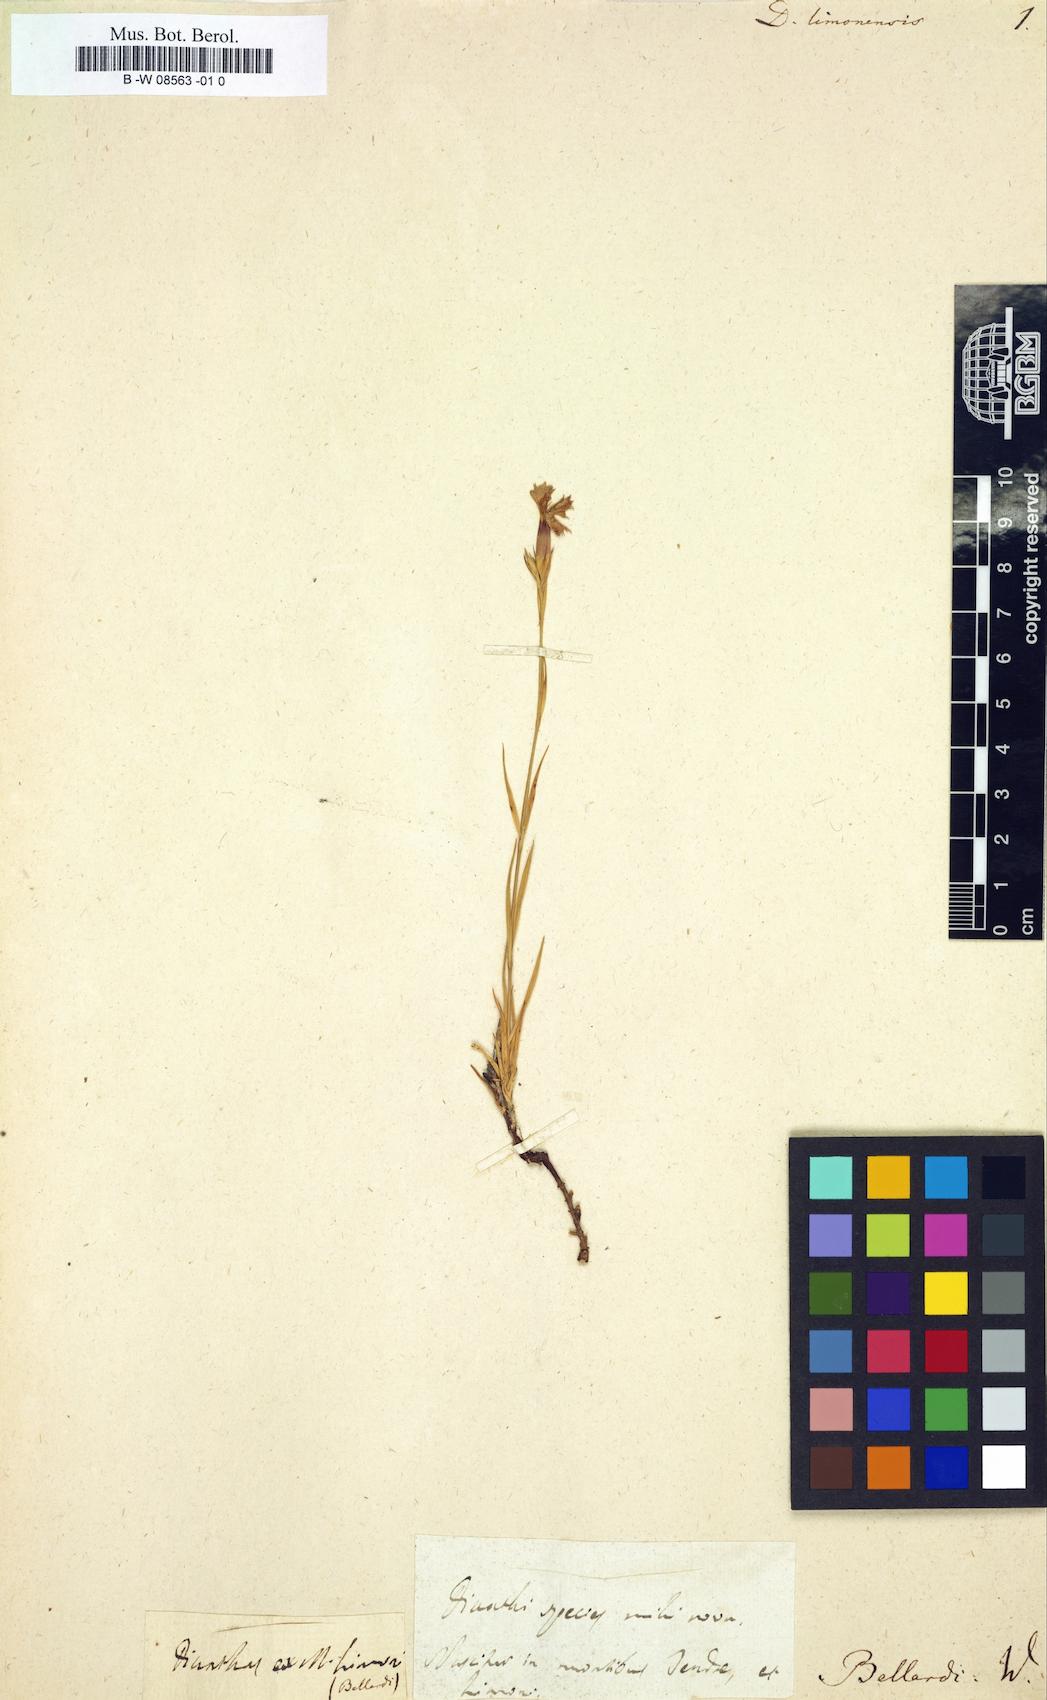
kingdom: Plantae
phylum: Tracheophyta
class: Magnoliopsida
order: Caryophyllales
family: Caryophyllaceae
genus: Dianthus
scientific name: Dianthus
